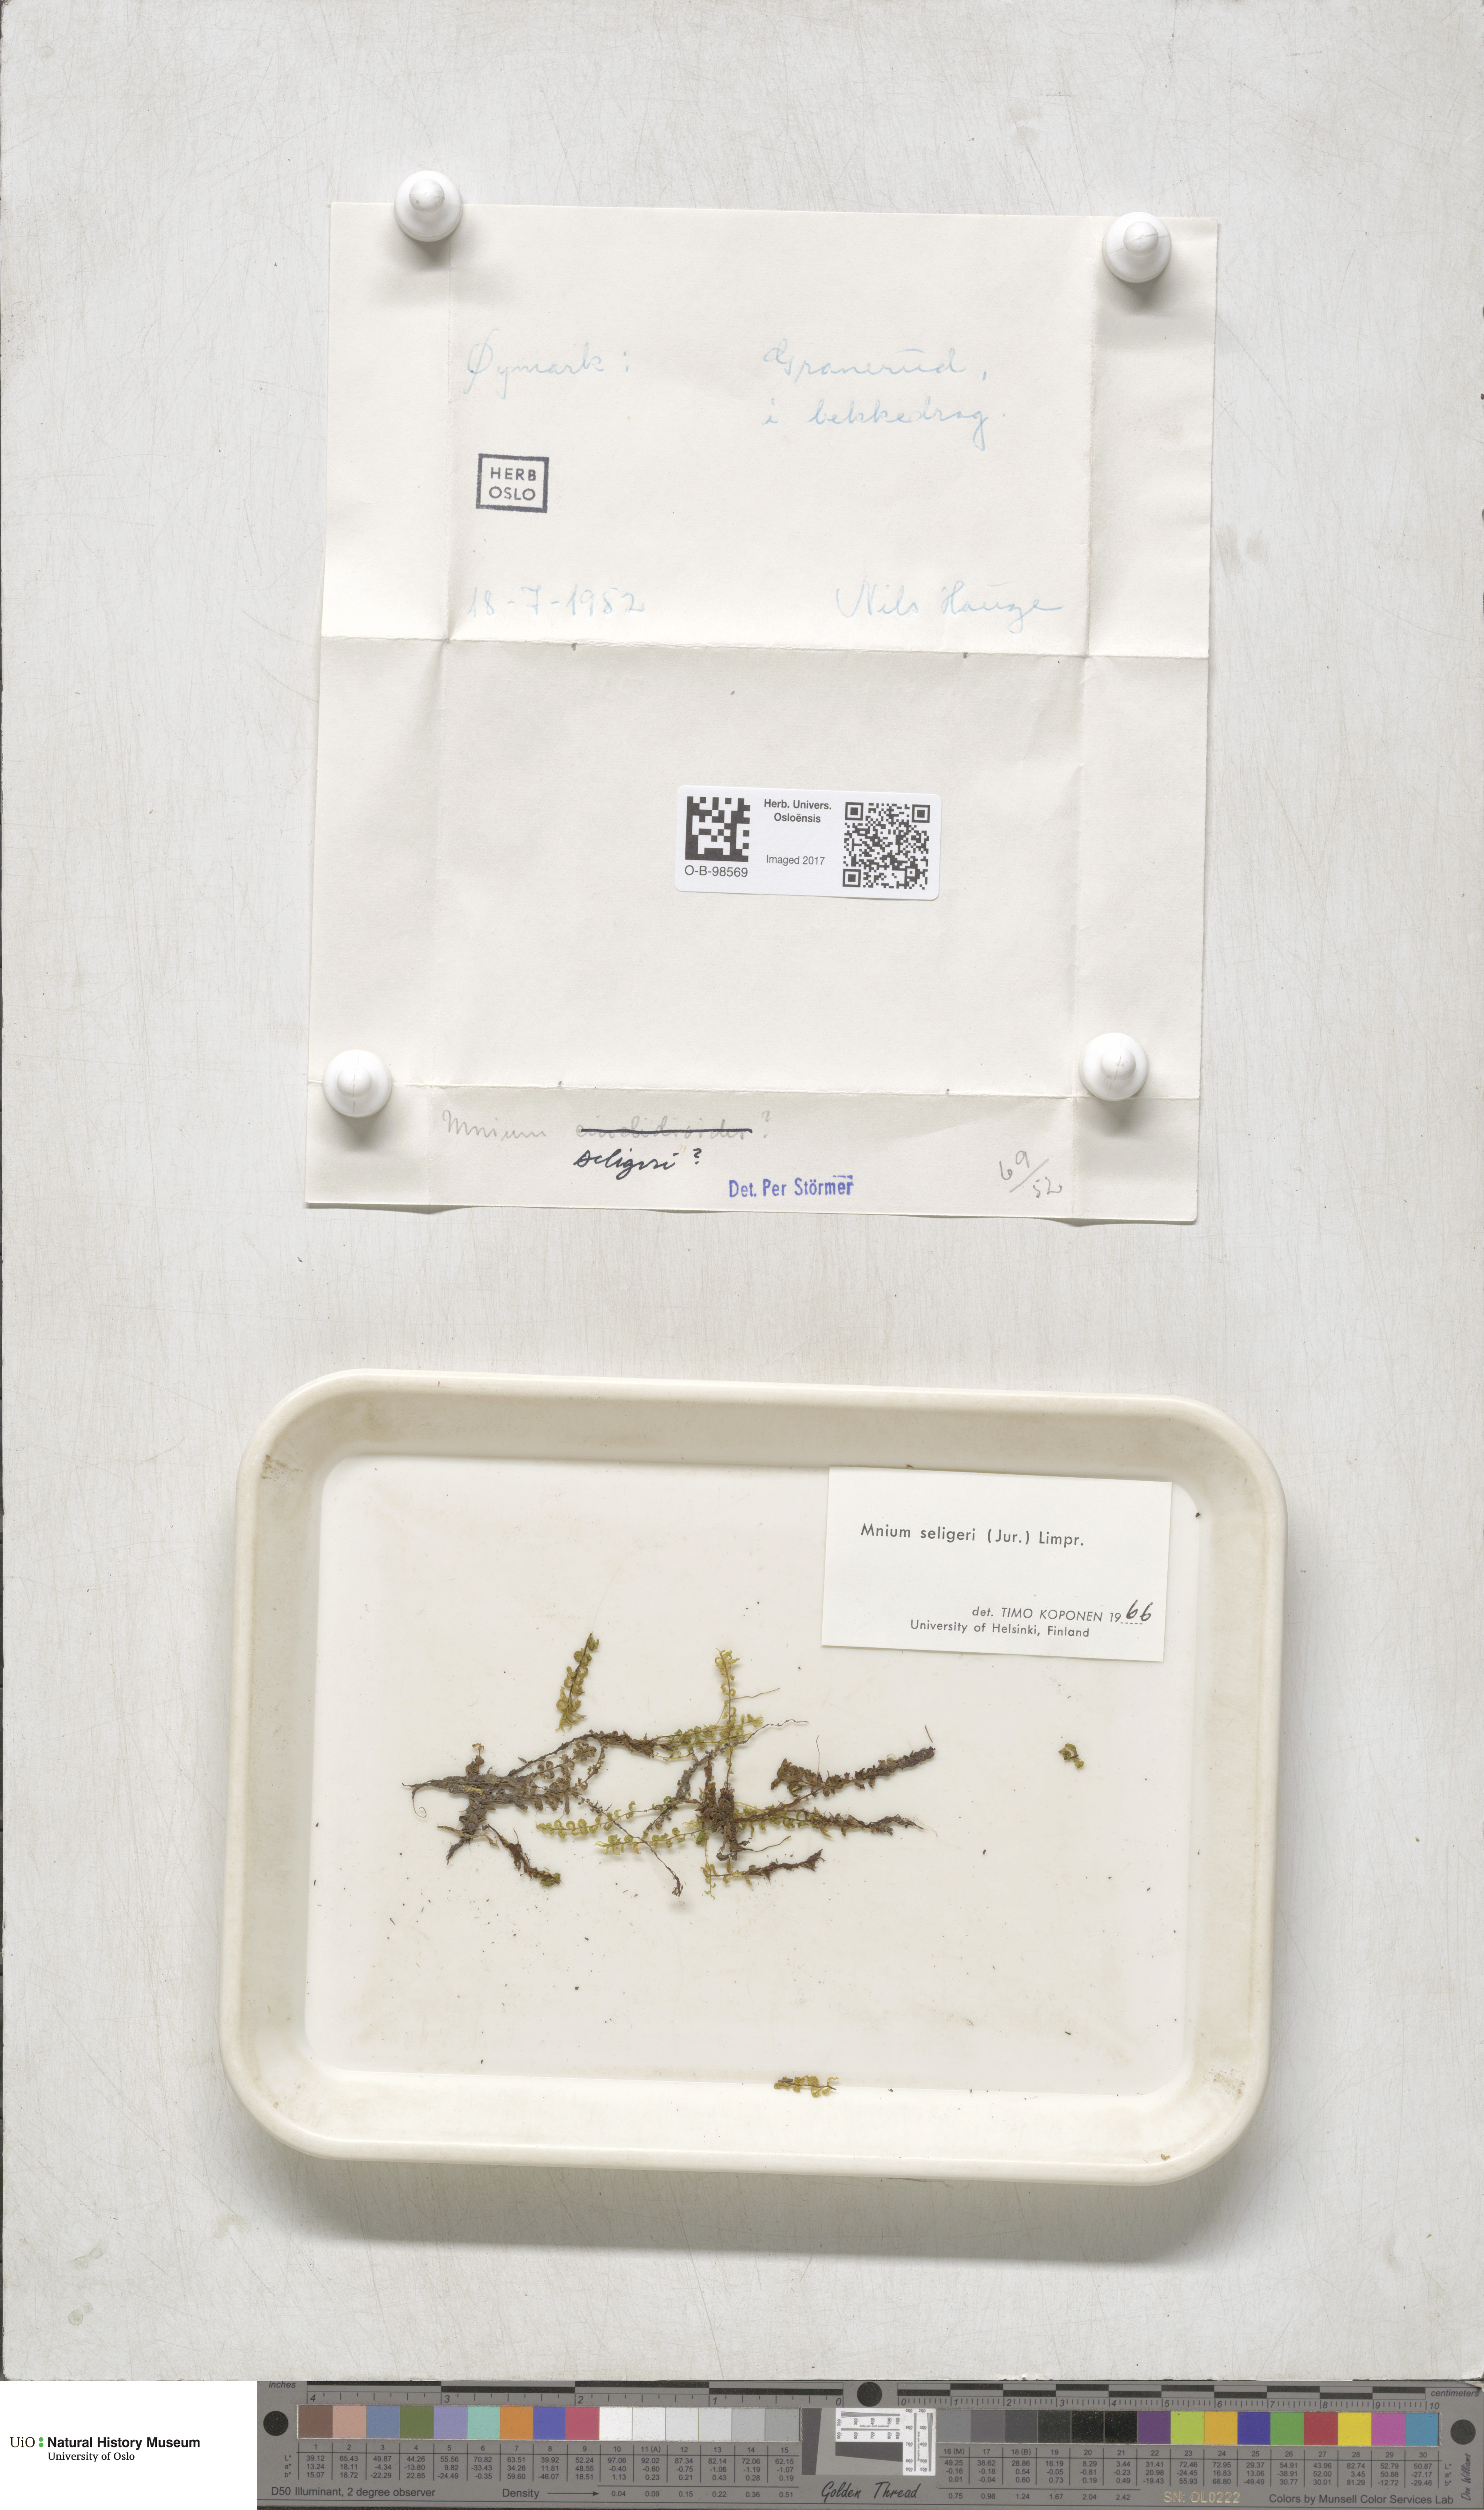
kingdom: Plantae
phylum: Bryophyta
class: Bryopsida
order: Bryales
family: Mniaceae
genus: Plagiomnium
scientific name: Plagiomnium elatum
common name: Tall thyme-moss
